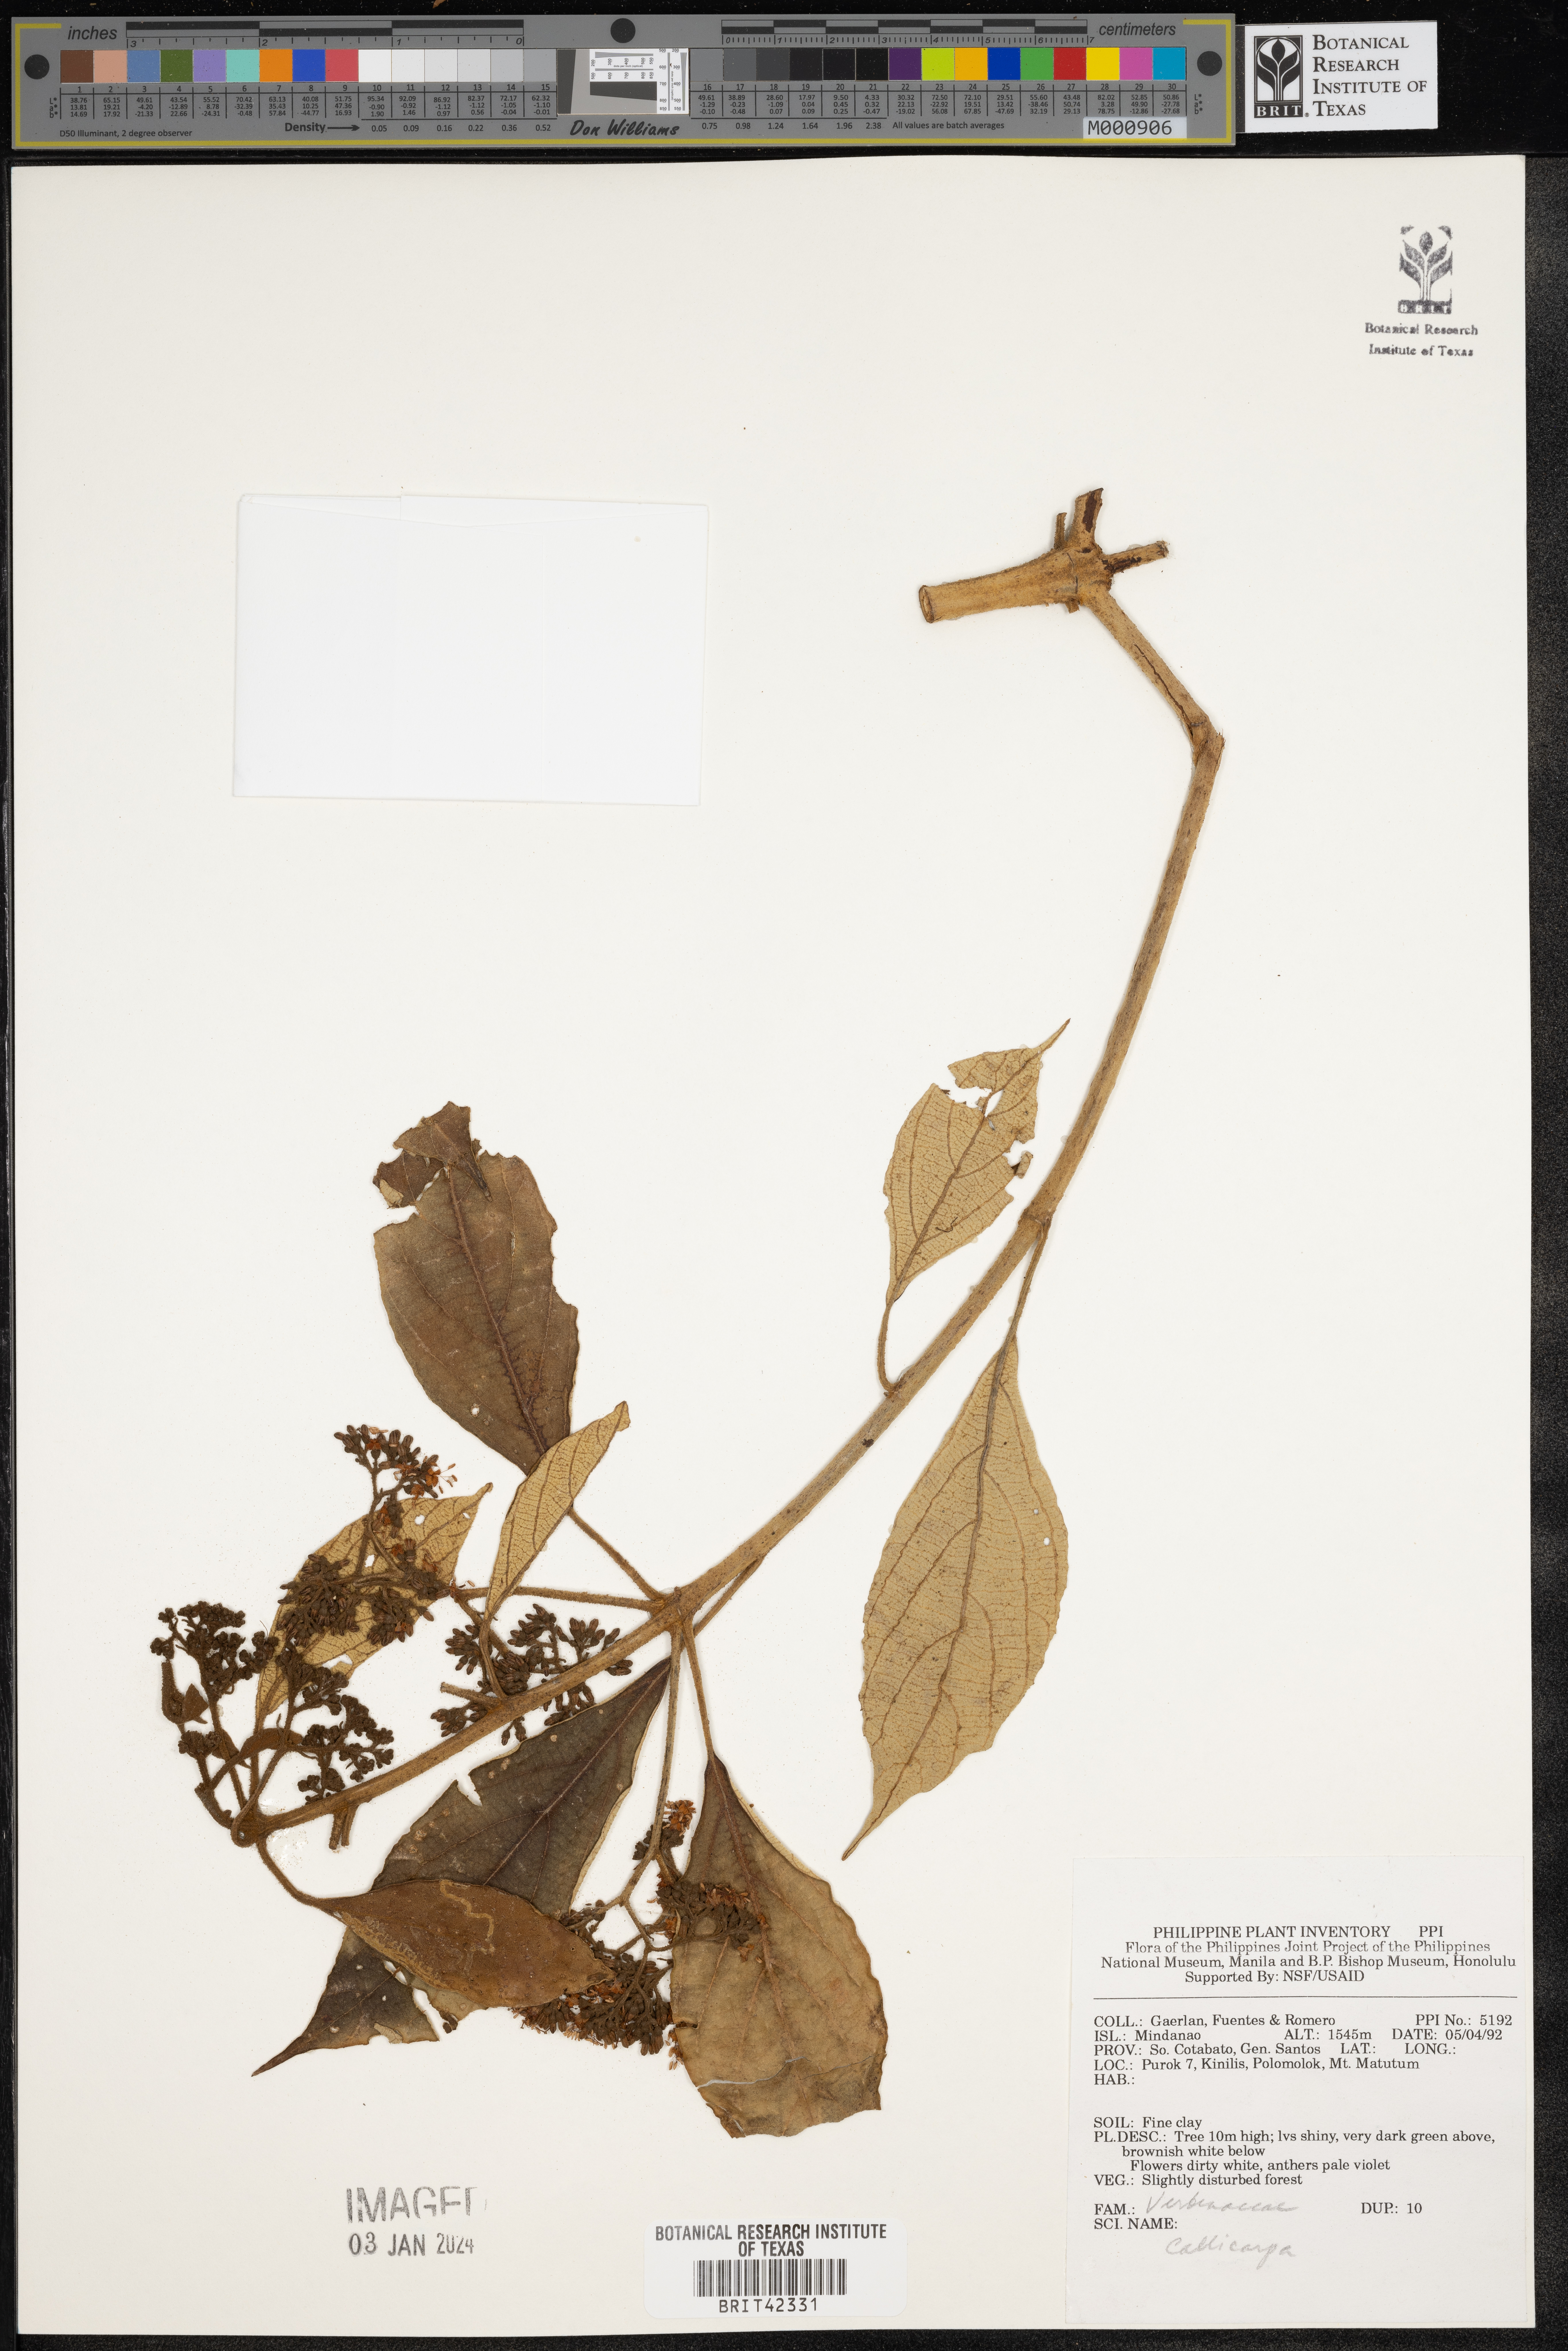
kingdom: Plantae
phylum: Tracheophyta
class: Magnoliopsida
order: Lamiales
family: Lamiaceae
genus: Callicarpa
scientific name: Callicarpa
